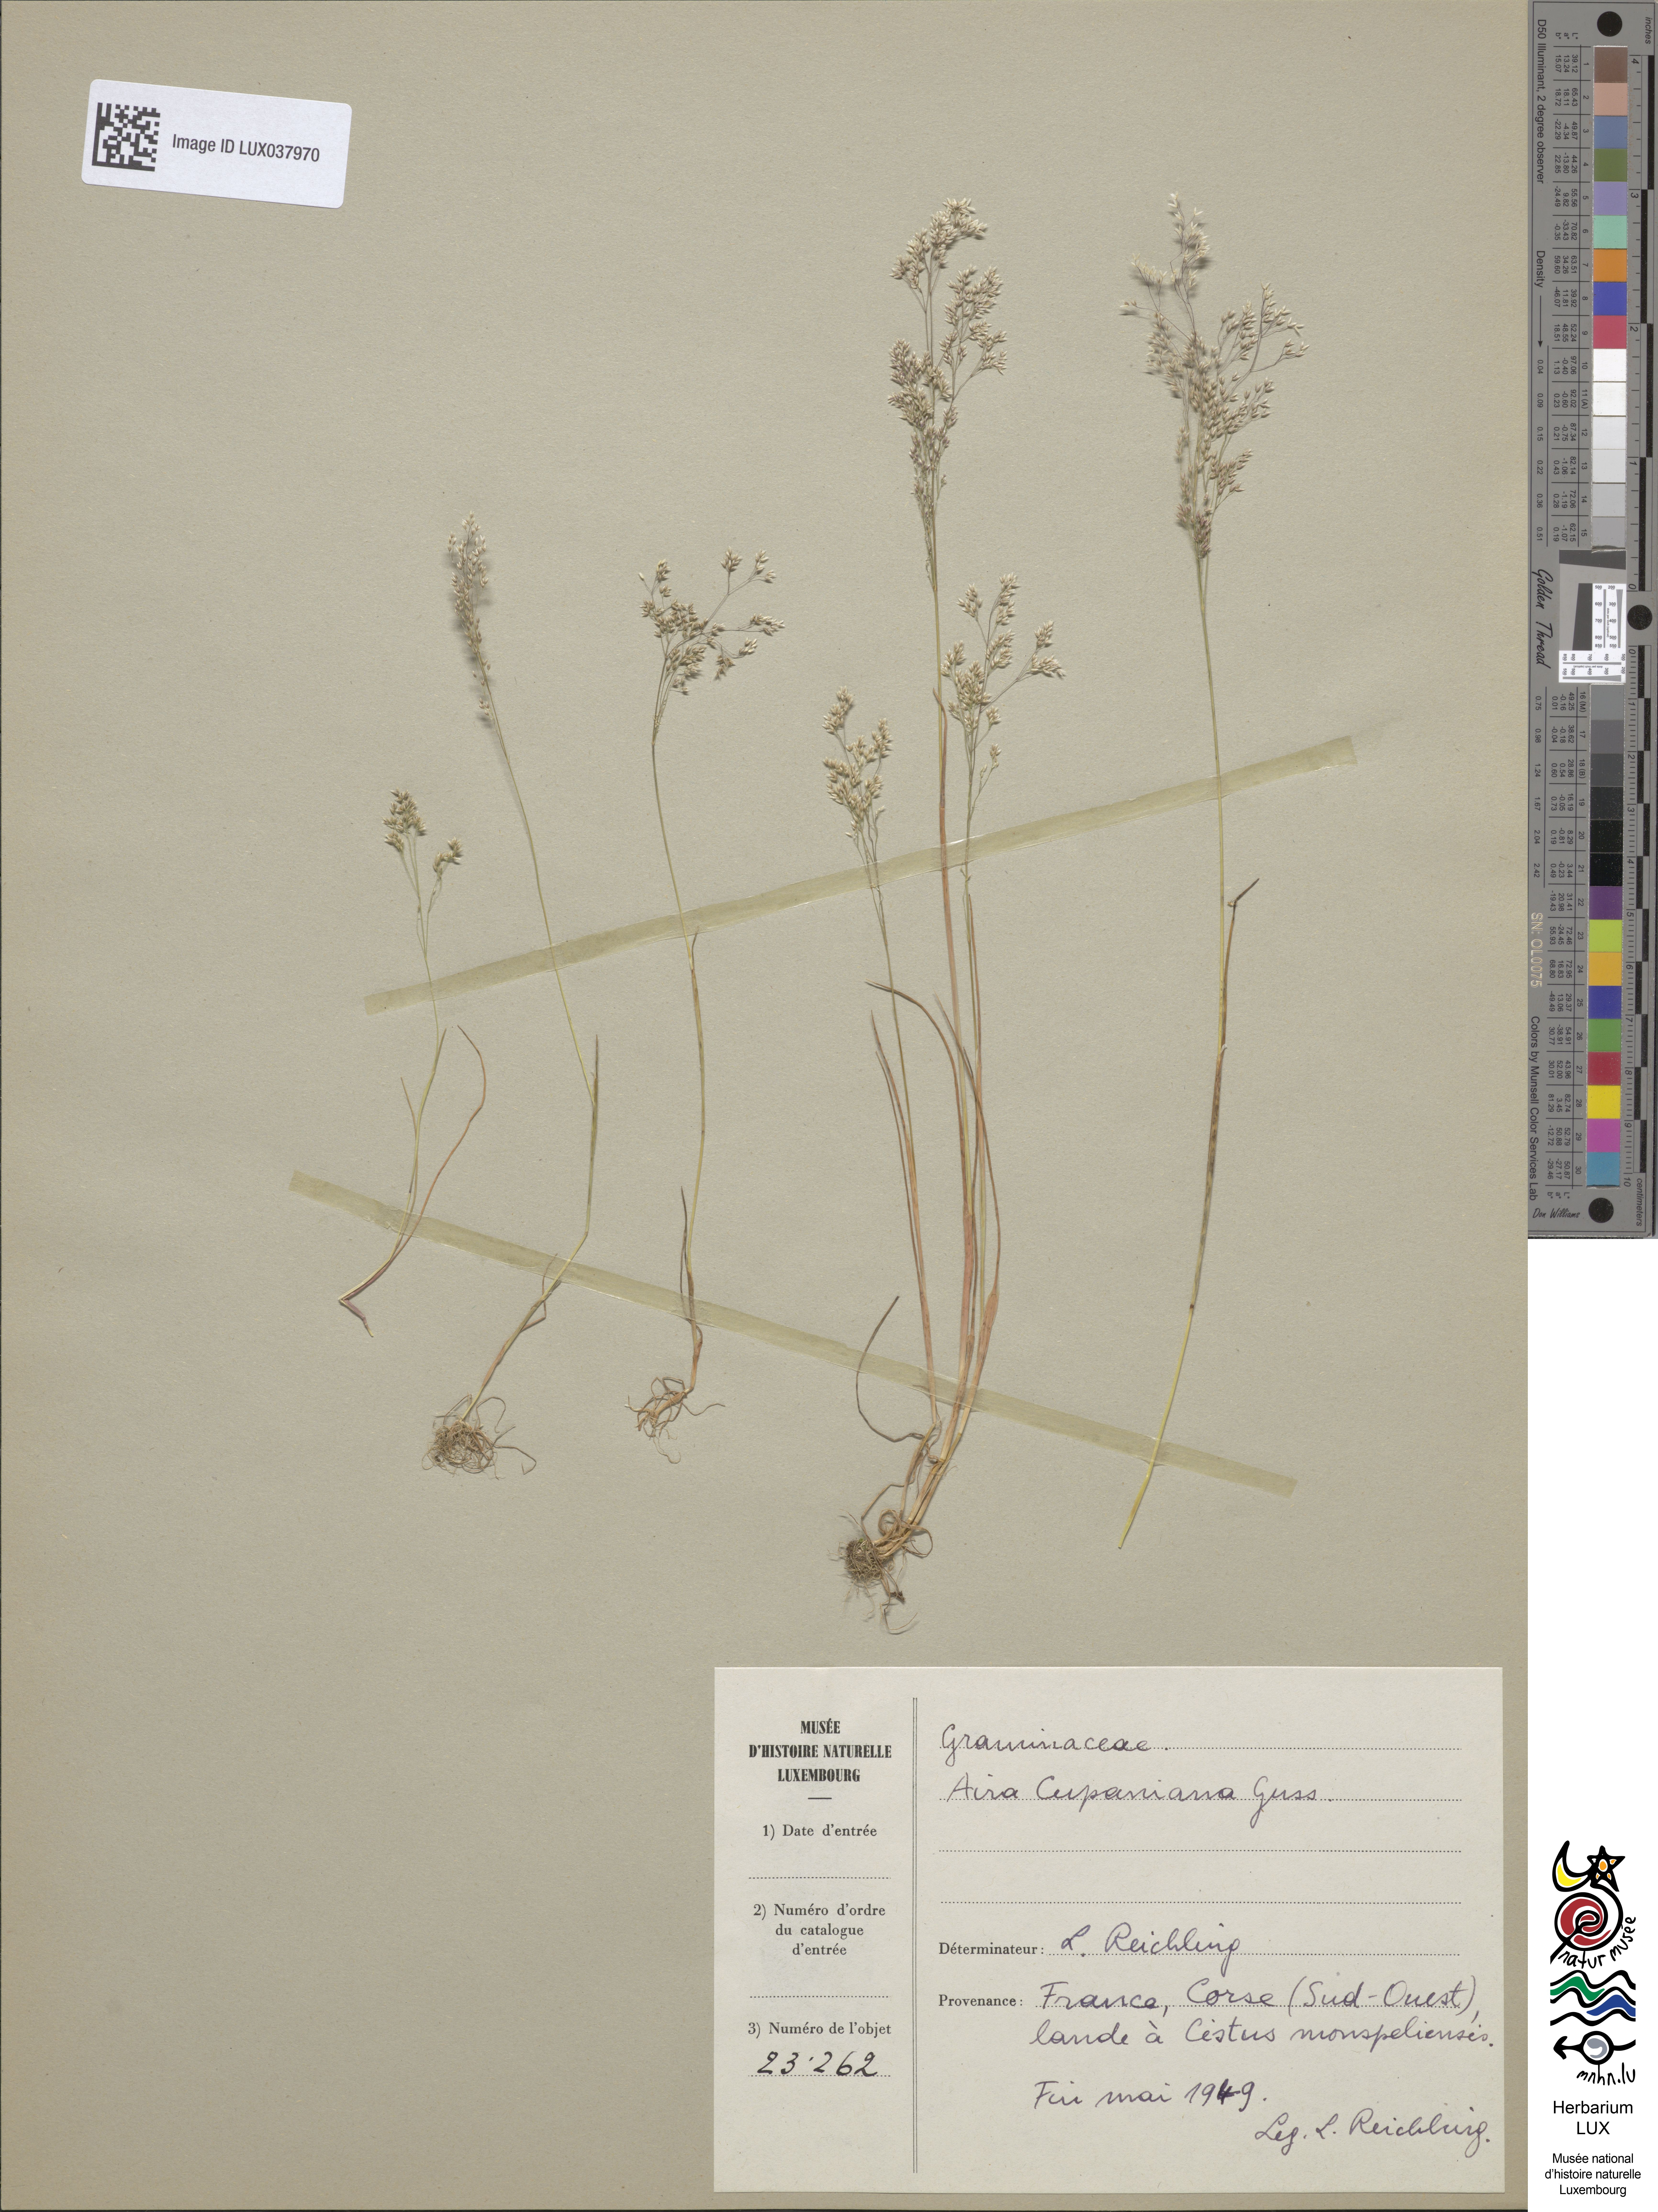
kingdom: Plantae
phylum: Tracheophyta
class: Liliopsida
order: Poales
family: Poaceae
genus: Aira
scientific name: Aira cupaniana
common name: Silver hairgrass
